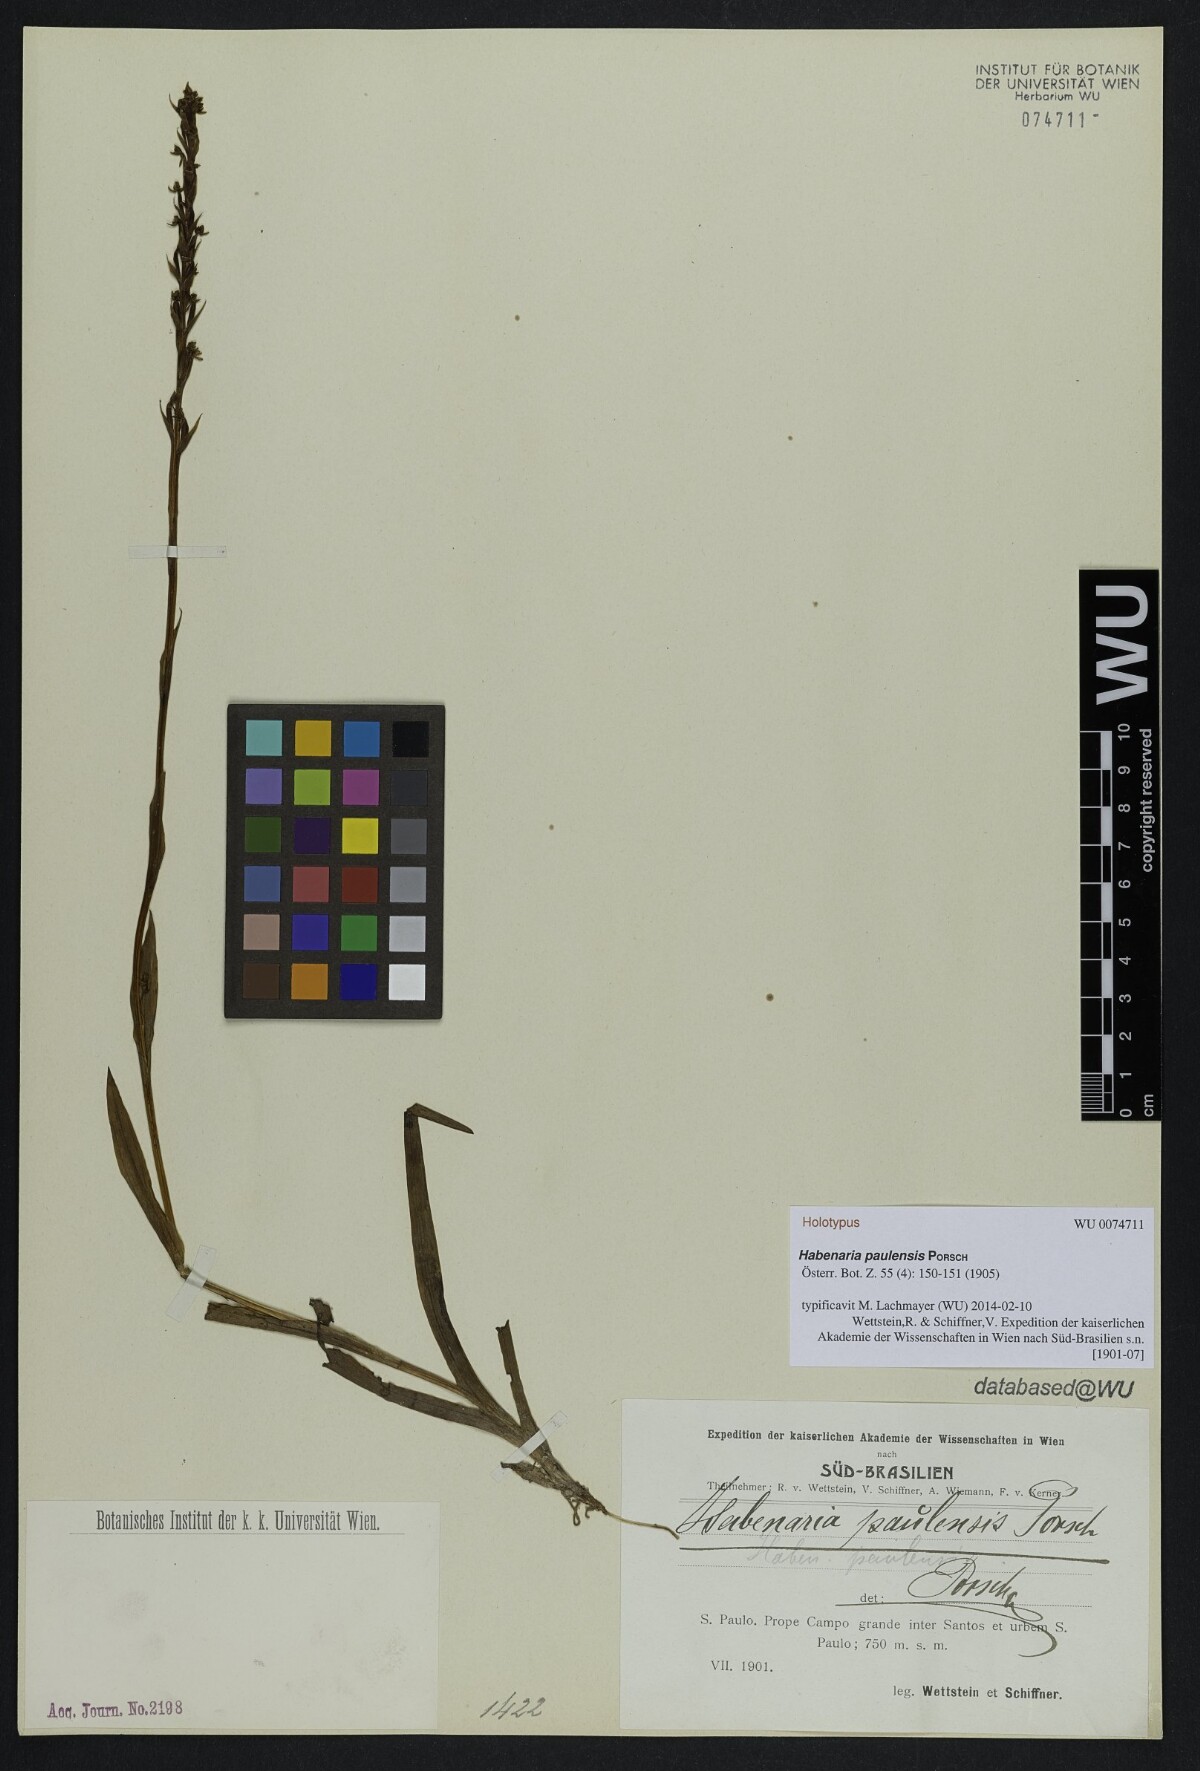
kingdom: Plantae
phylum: Tracheophyta
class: Liliopsida
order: Asparagales
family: Orchidaceae
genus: Habenaria
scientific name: Habenaria paulensis
